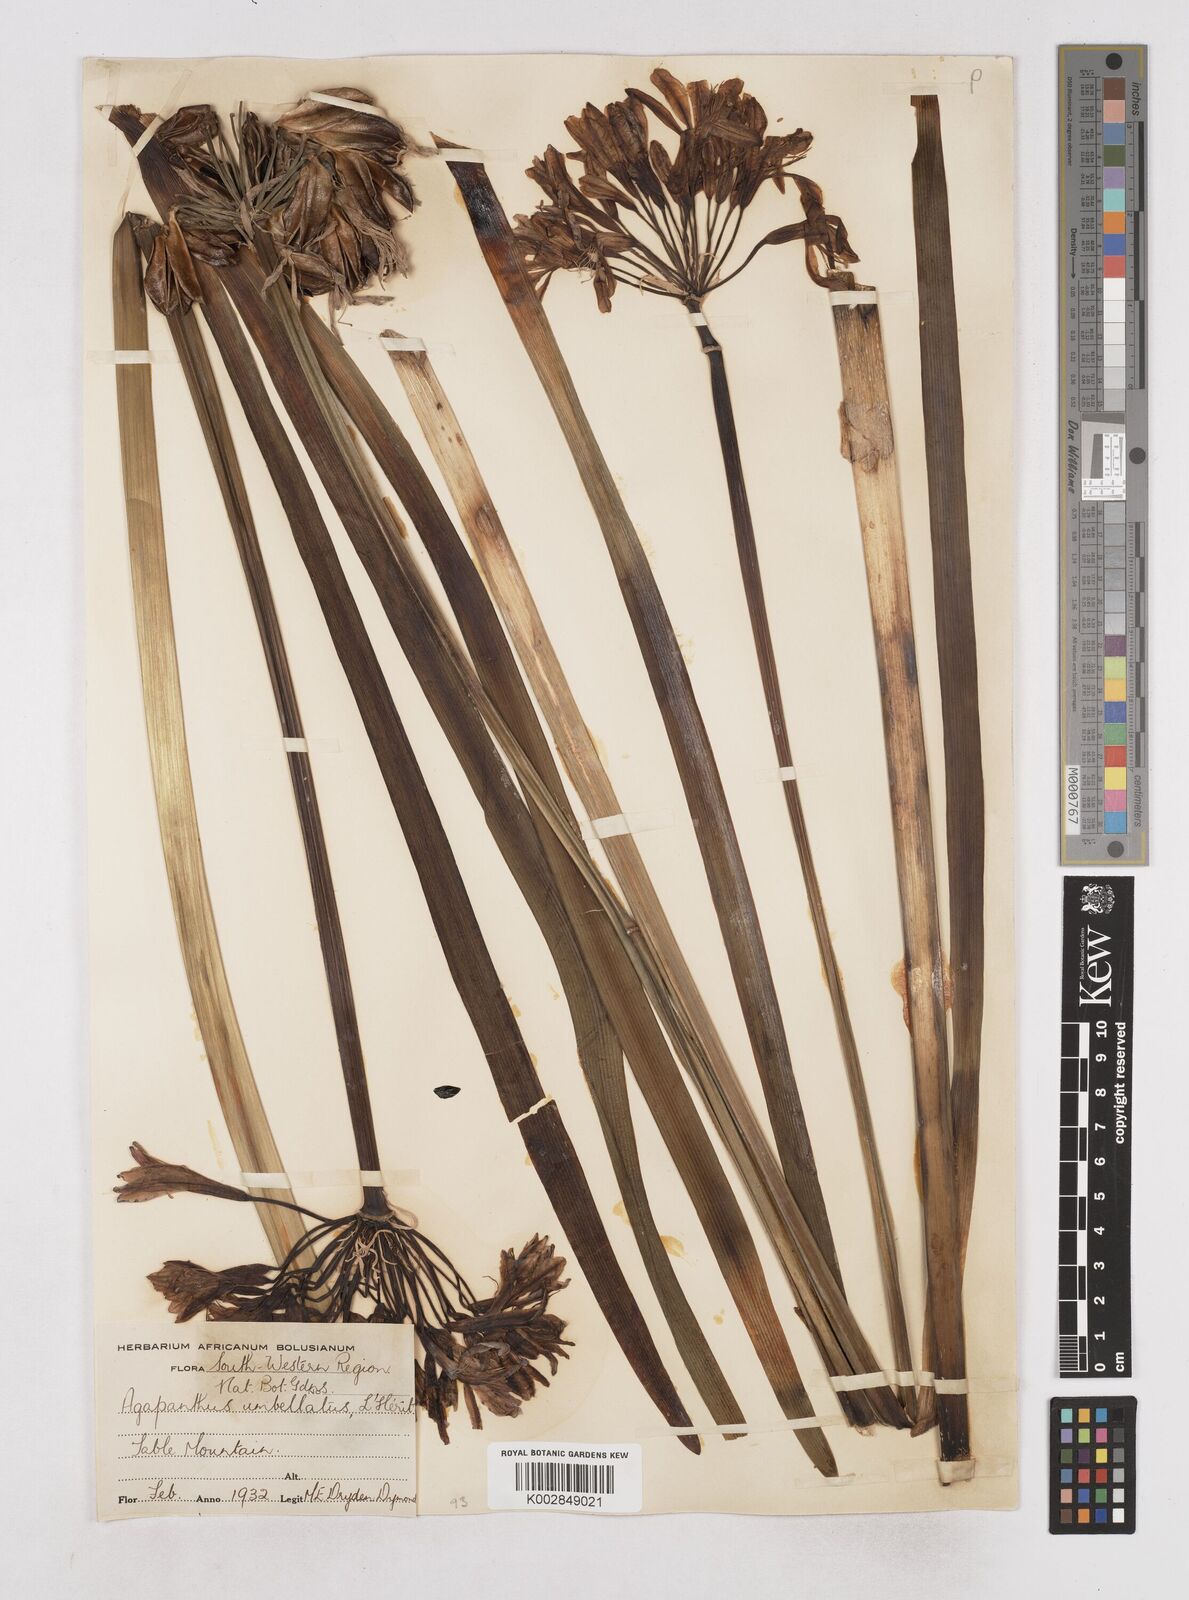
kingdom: Plantae
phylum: Tracheophyta
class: Liliopsida
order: Asparagales
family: Amaryllidaceae
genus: Agapanthus
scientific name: Agapanthus africanus
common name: Lily-of-the-nile
